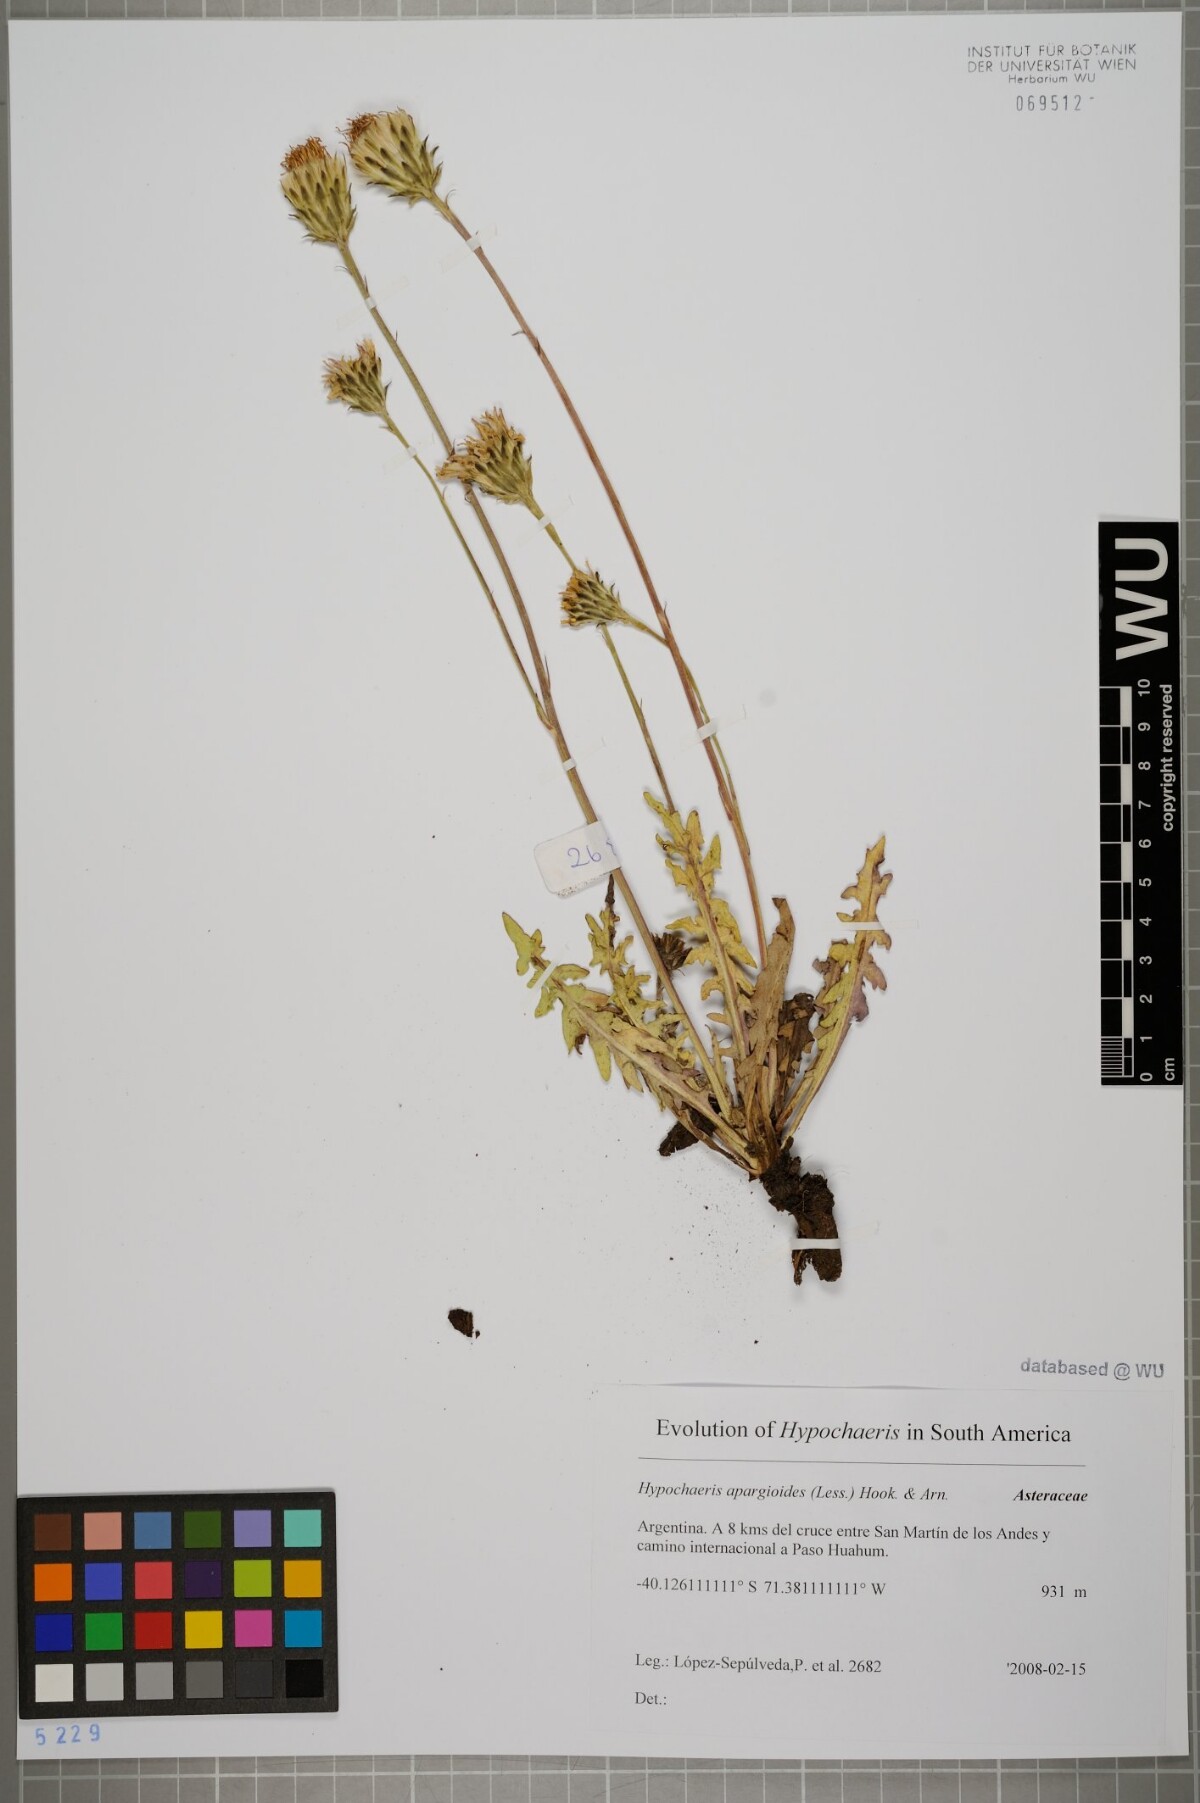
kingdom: Plantae
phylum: Tracheophyta
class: Magnoliopsida
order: Asterales
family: Asteraceae
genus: Hypochaeris
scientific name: Hypochaeris apargioides
